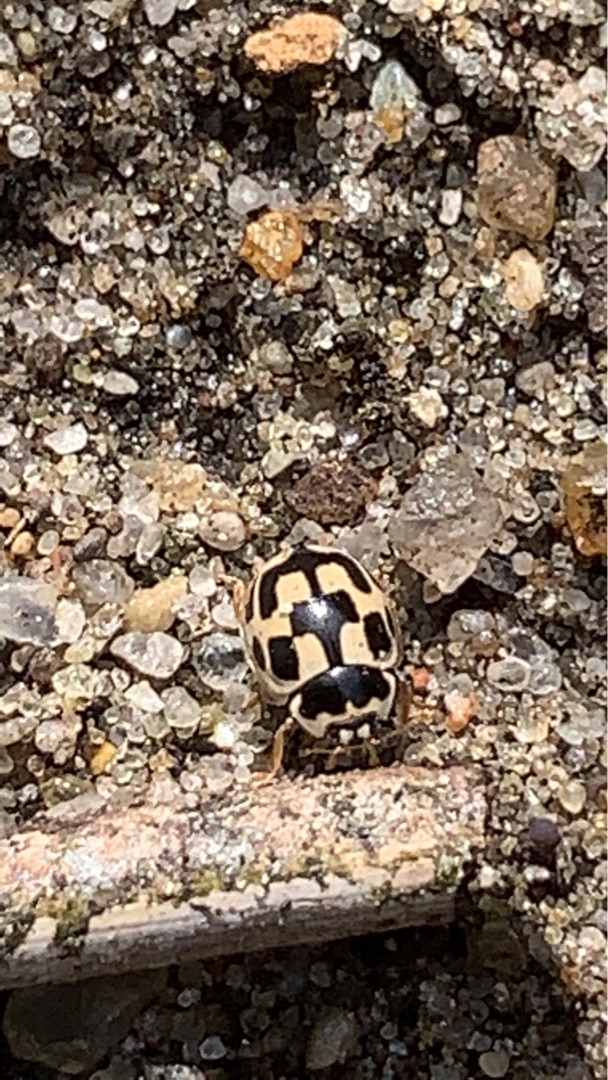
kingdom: Animalia
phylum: Arthropoda
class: Insecta
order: Coleoptera
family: Coccinellidae
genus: Propylaea
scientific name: Propylaea quatuordecimpunctata
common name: Skakbræt
